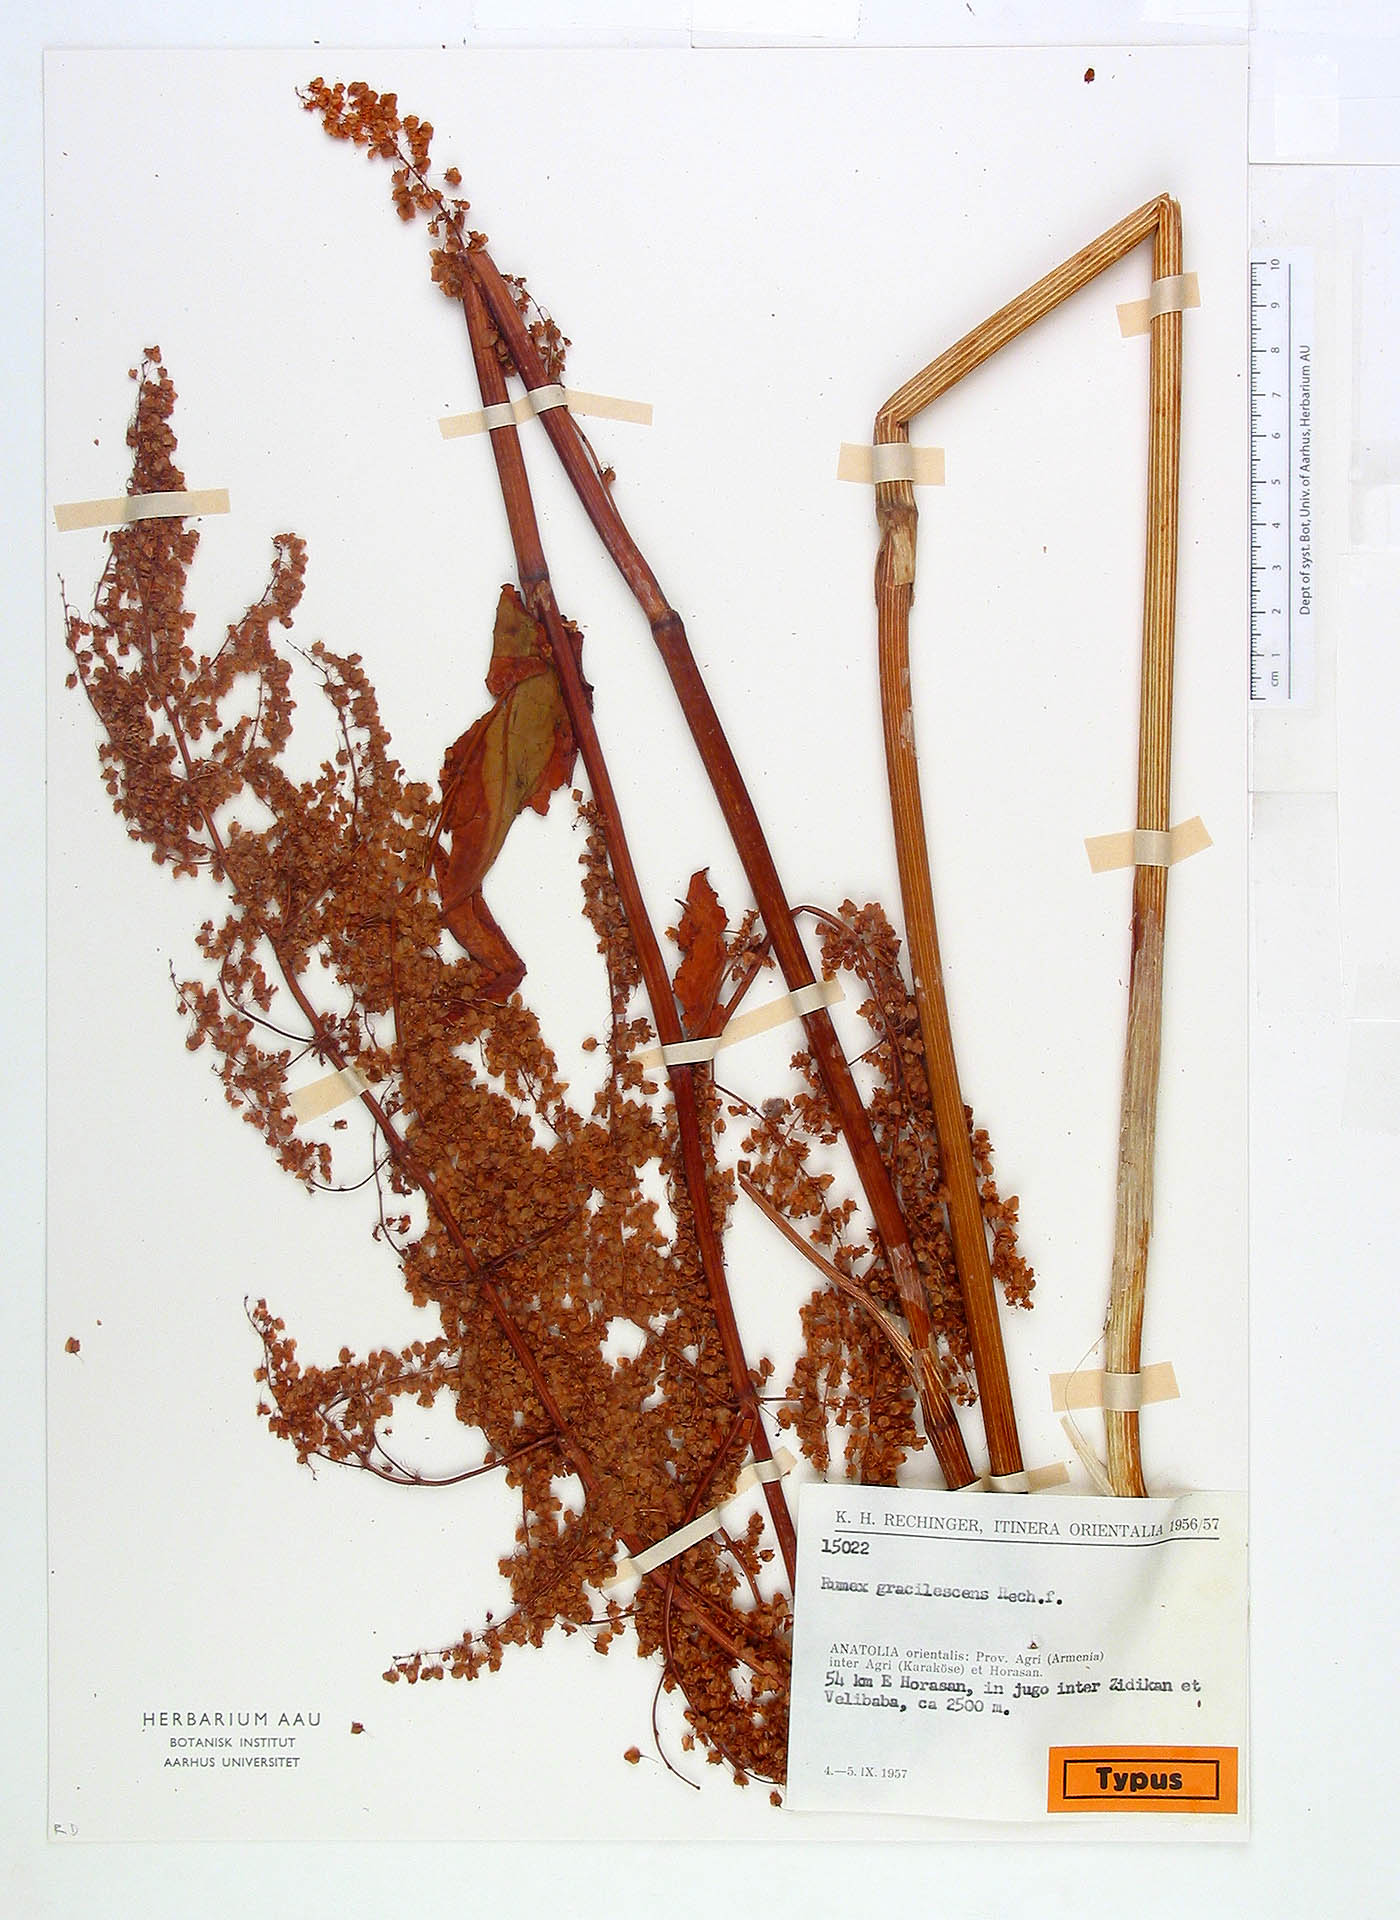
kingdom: Plantae
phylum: Tracheophyta
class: Magnoliopsida
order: Caryophyllales
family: Polygonaceae
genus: Rumex
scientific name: Rumex gracilescens
